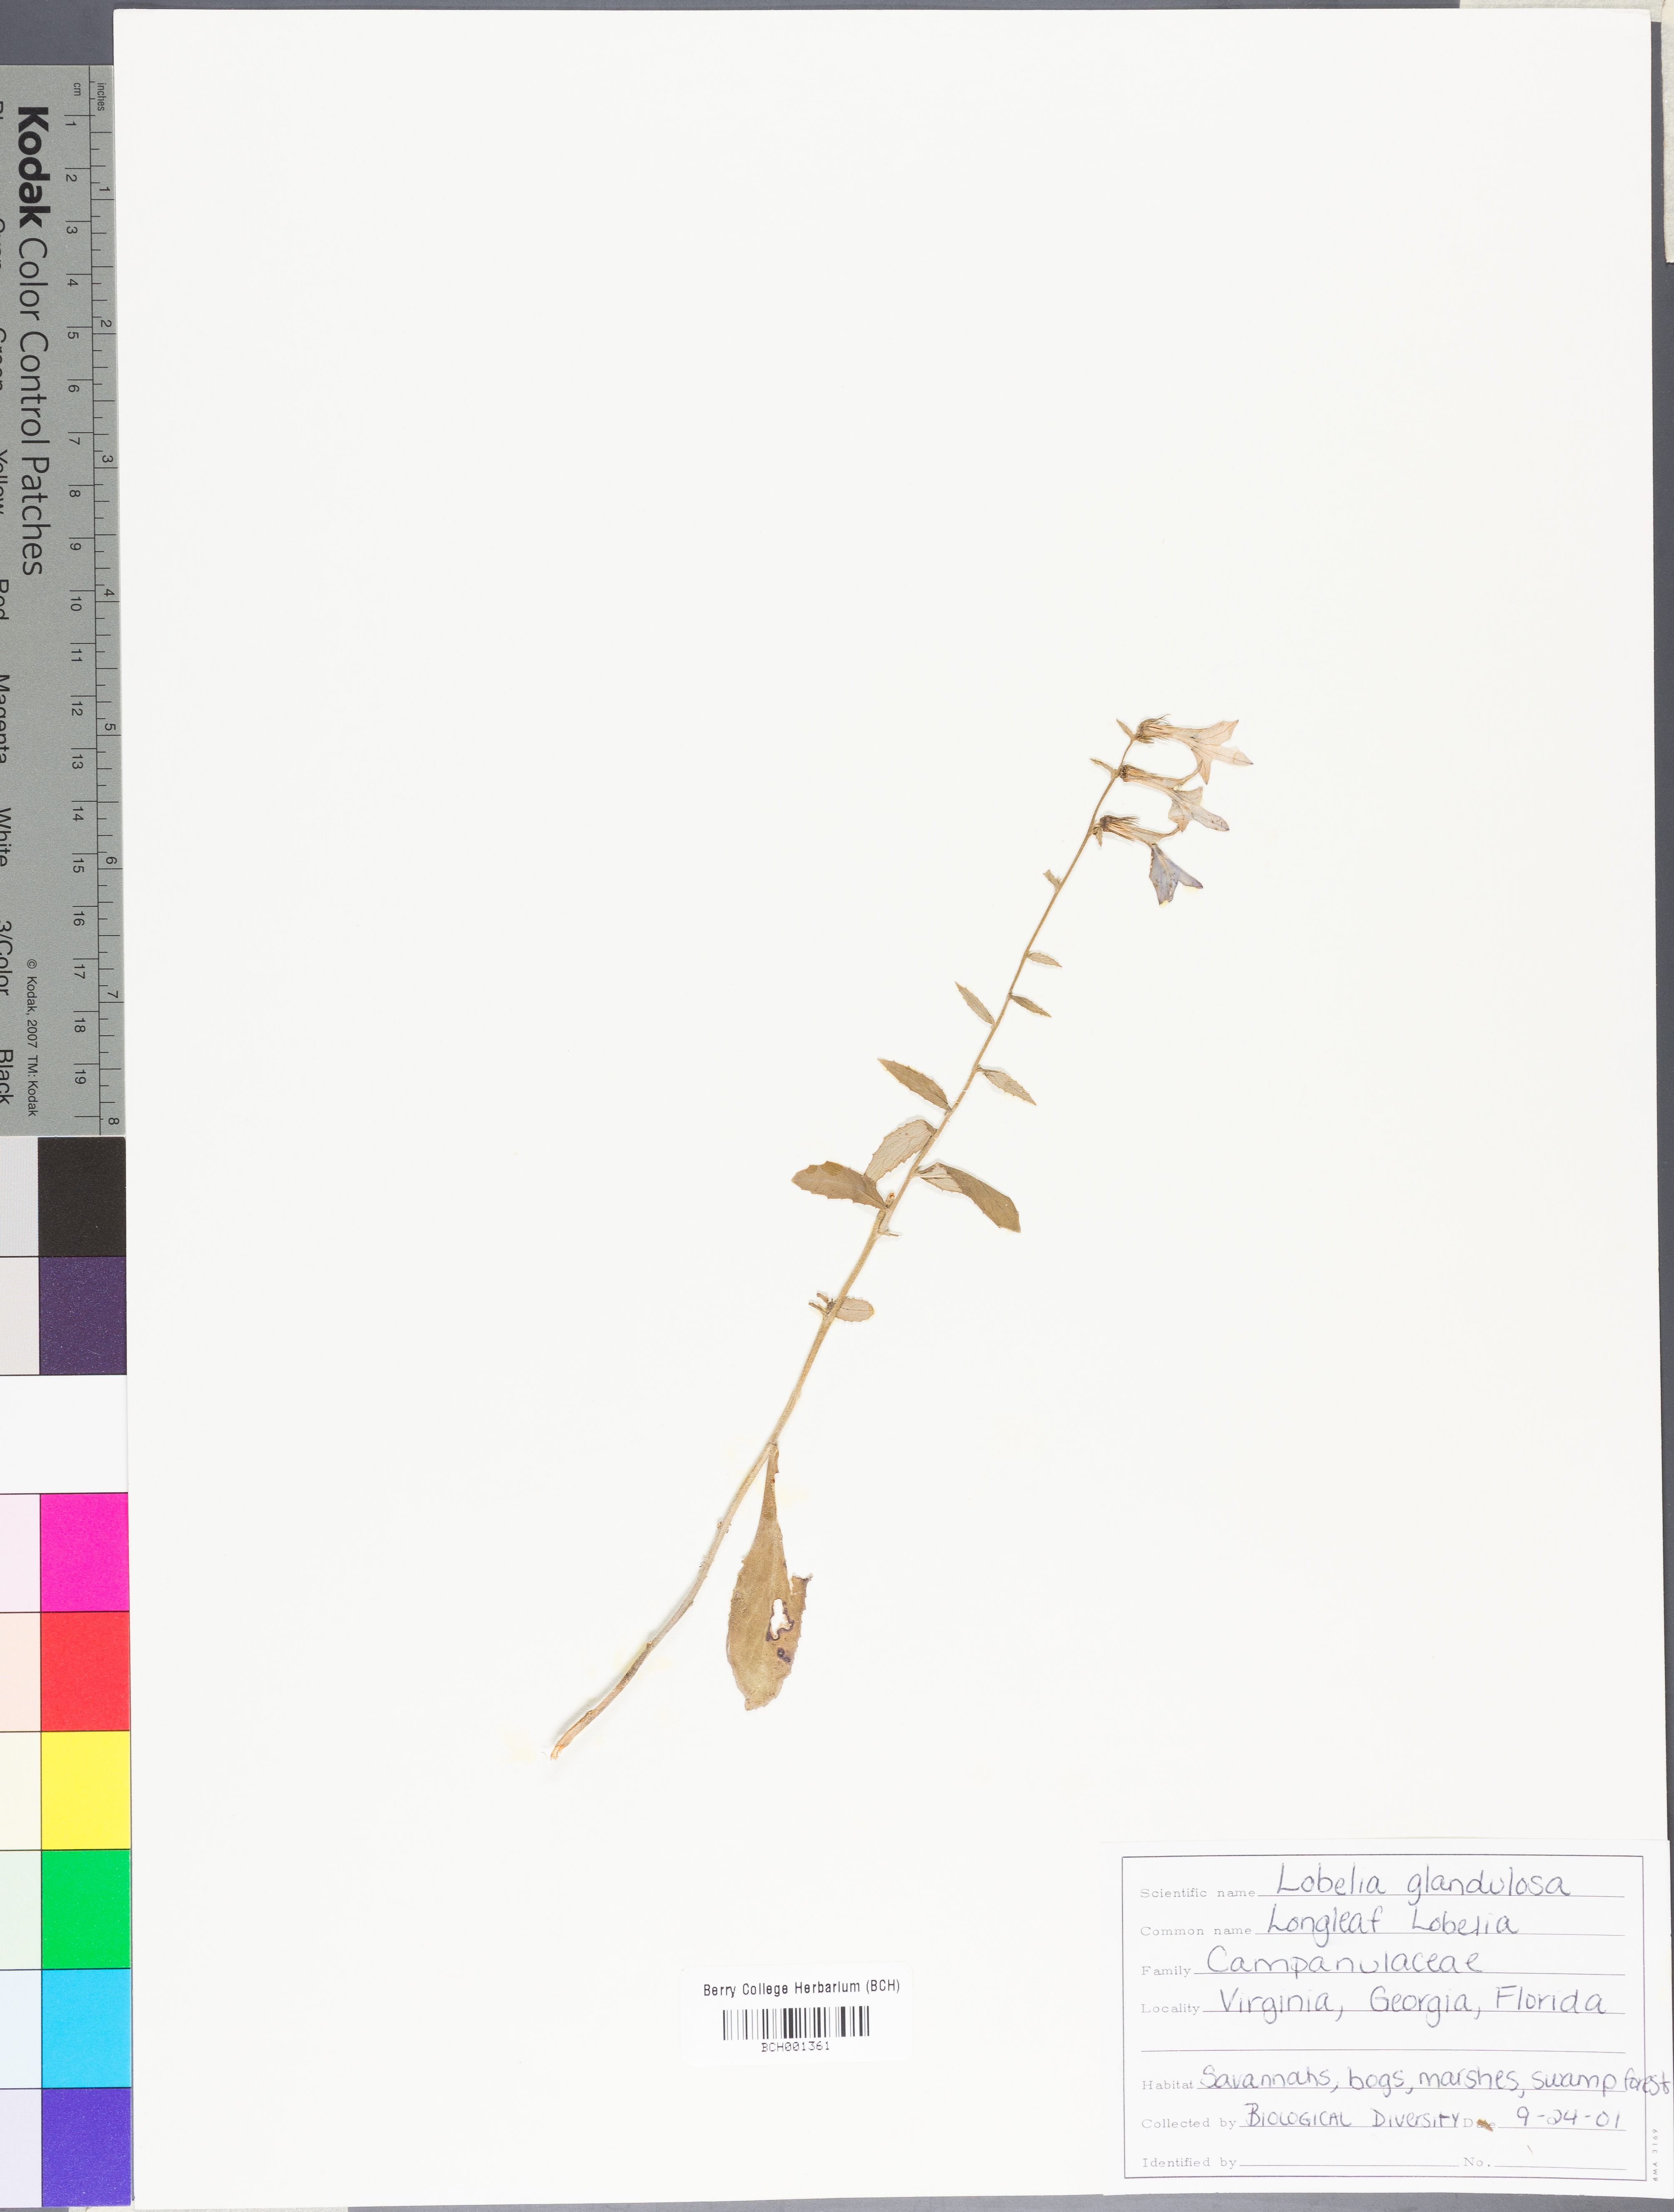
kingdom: Plantae
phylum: Tracheophyta
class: Magnoliopsida
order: Asterales
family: Campanulaceae
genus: Lobelia
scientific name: Lobelia glandulosa
